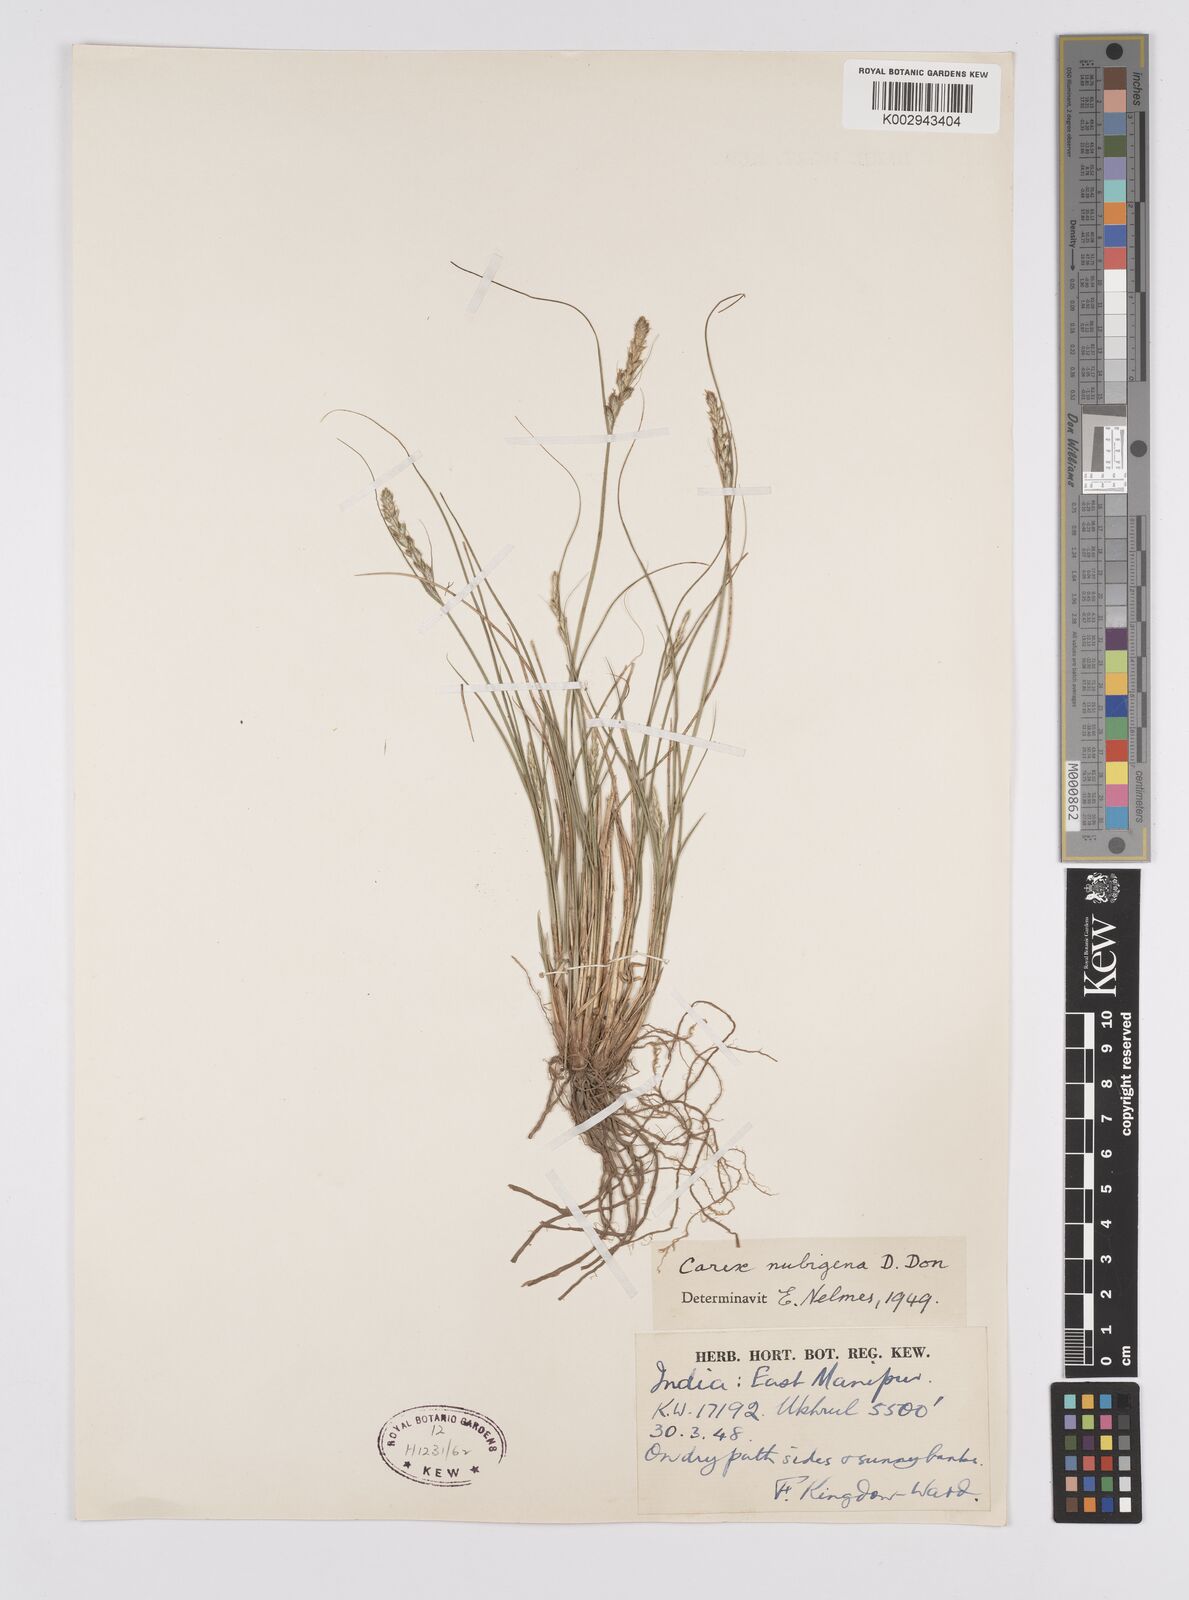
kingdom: Plantae
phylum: Tracheophyta
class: Liliopsida
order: Poales
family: Cyperaceae
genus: Carex
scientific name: Carex nubigena
